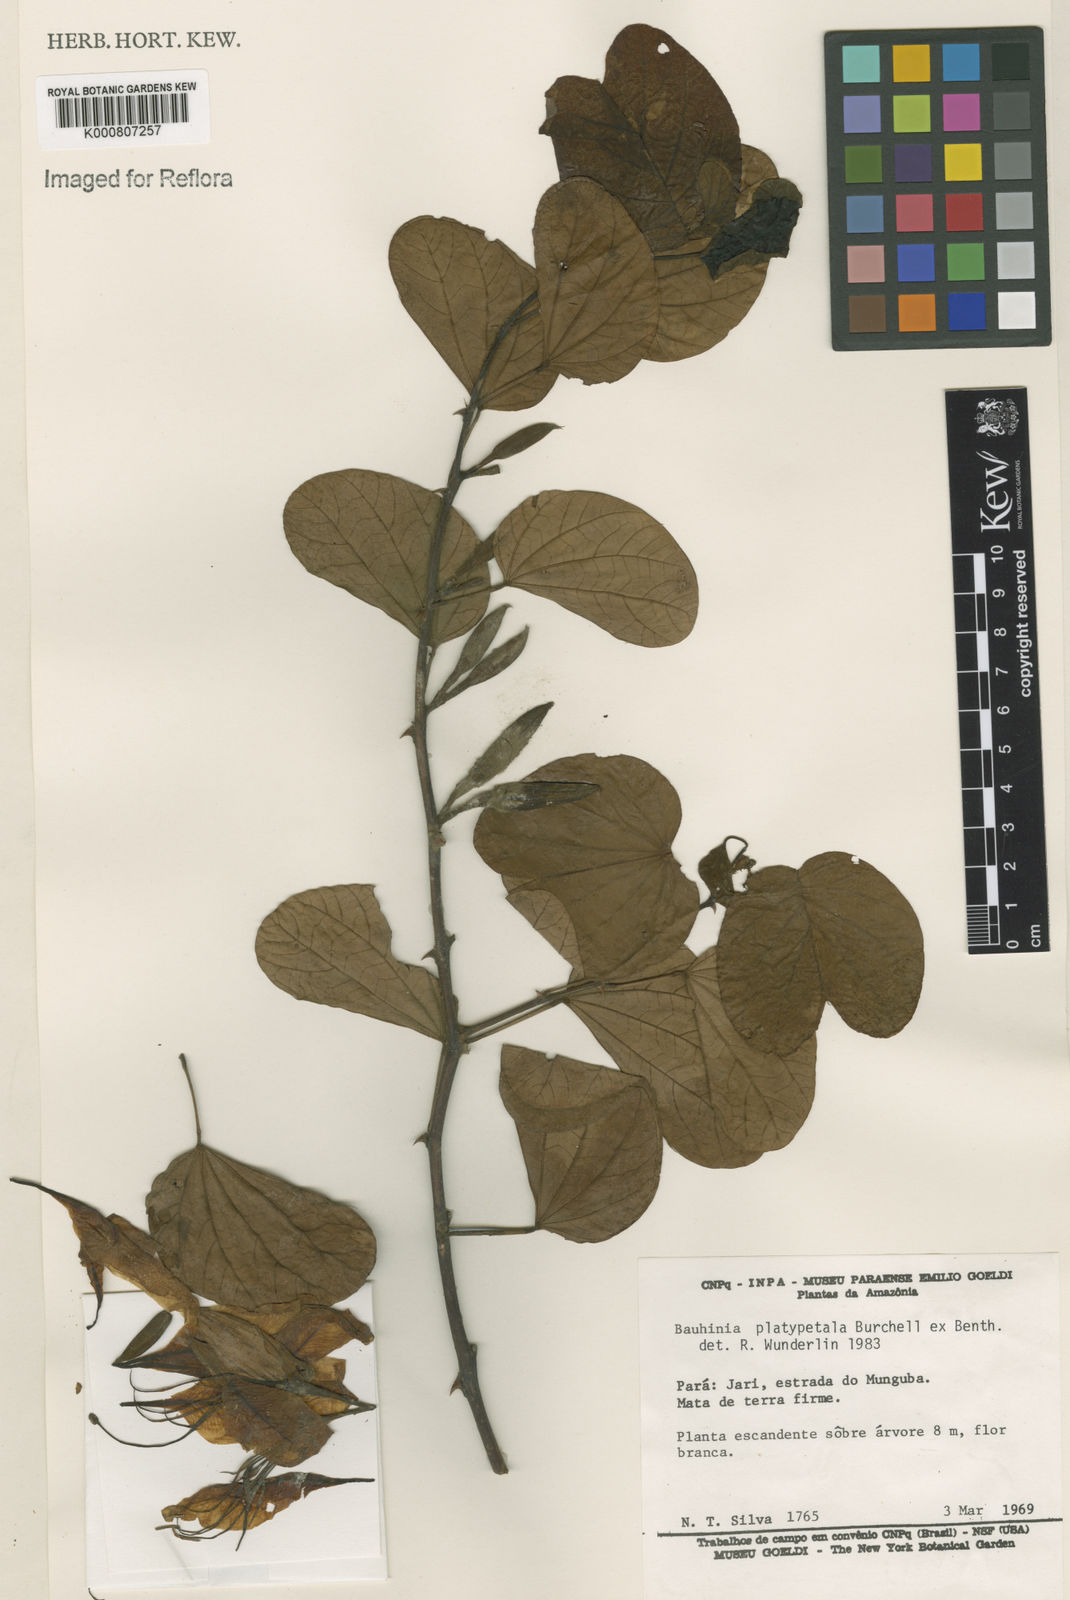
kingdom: Plantae
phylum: Tracheophyta
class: Magnoliopsida
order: Fabales
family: Fabaceae
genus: Bauhinia
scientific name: Bauhinia platypetala
